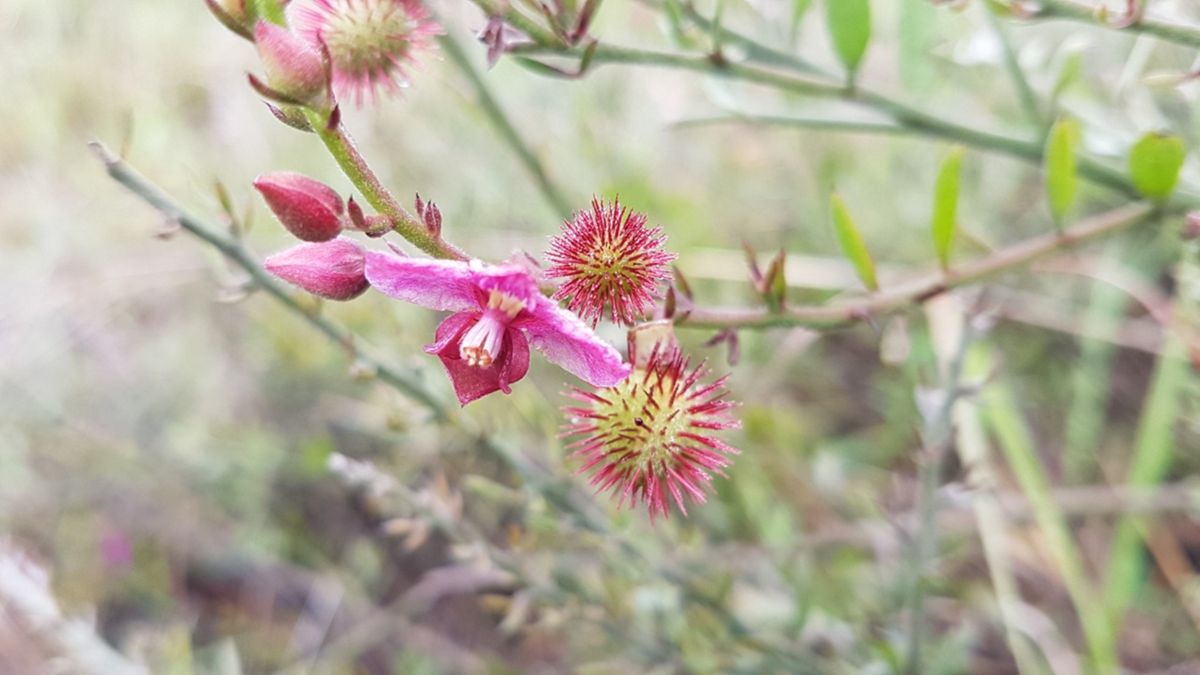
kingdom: Plantae
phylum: Tracheophyta
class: Magnoliopsida
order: Zygophyllales
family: Krameriaceae
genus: Krameria
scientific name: Krameria ixine
